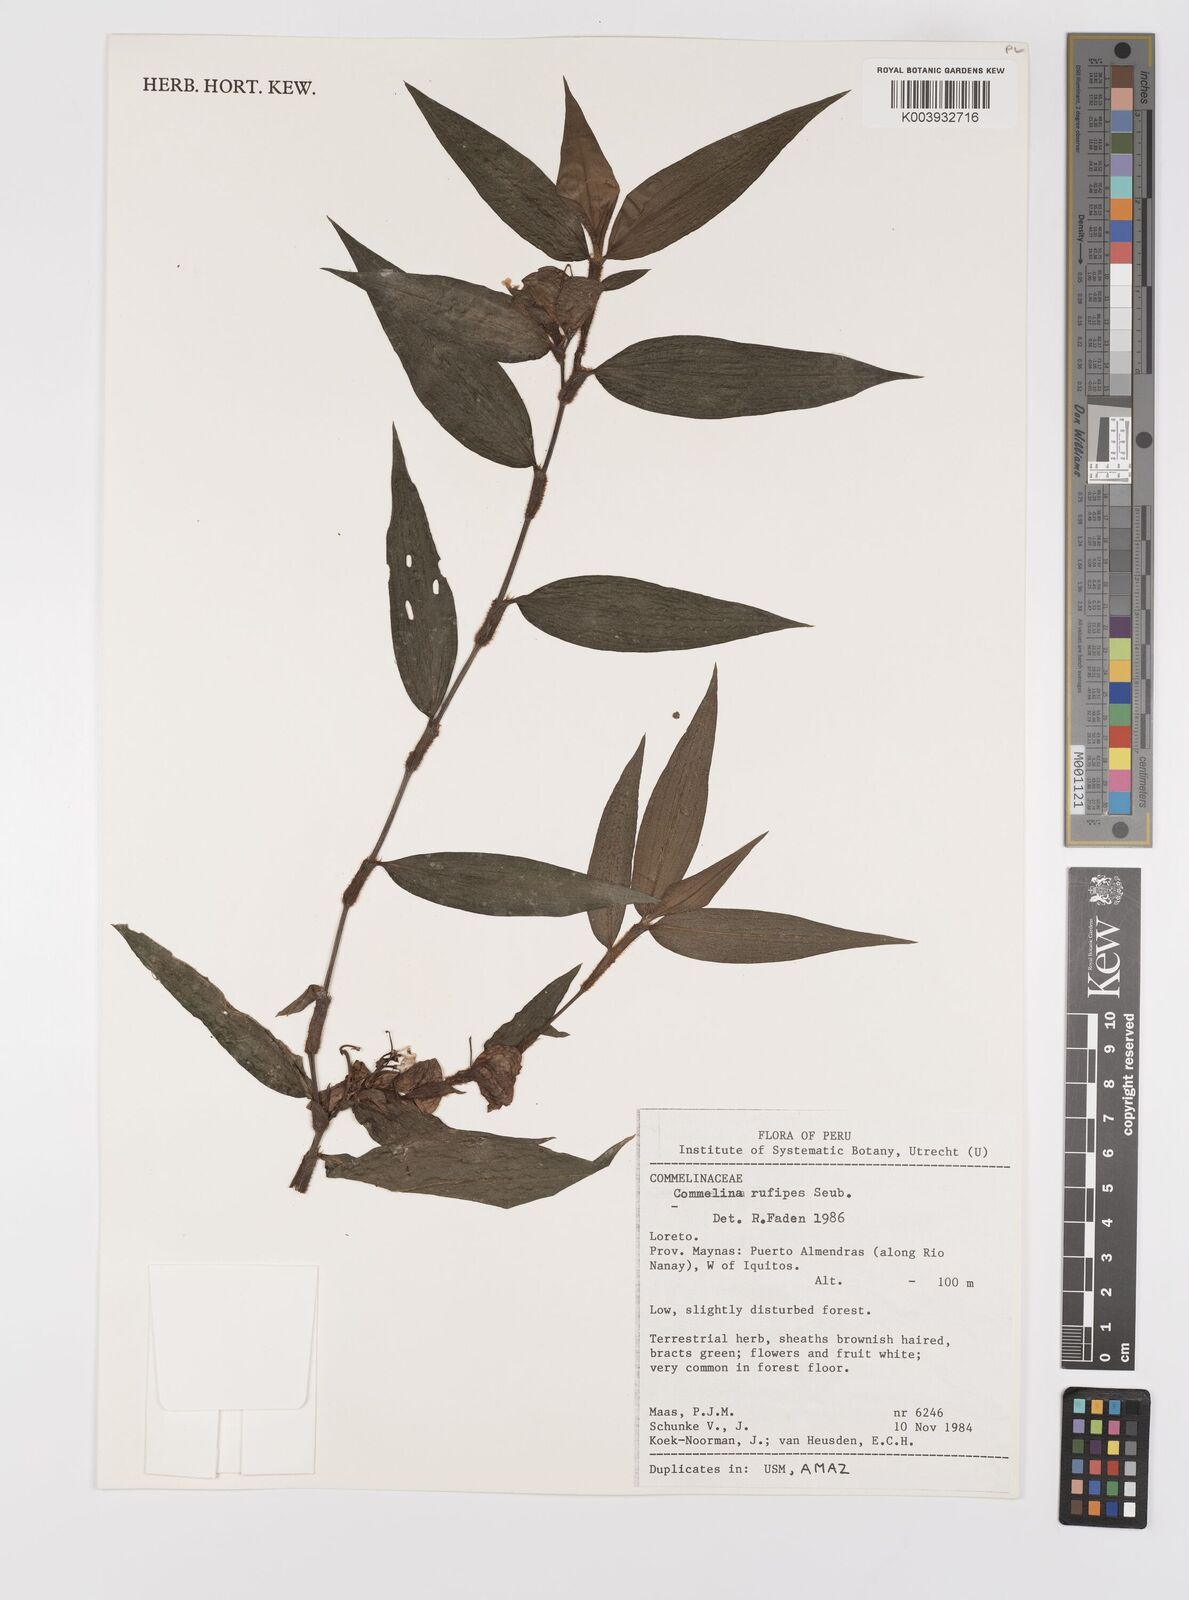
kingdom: Plantae
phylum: Tracheophyta
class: Liliopsida
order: Commelinales
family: Commelinaceae
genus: Commelina
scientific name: Commelina rufipes
